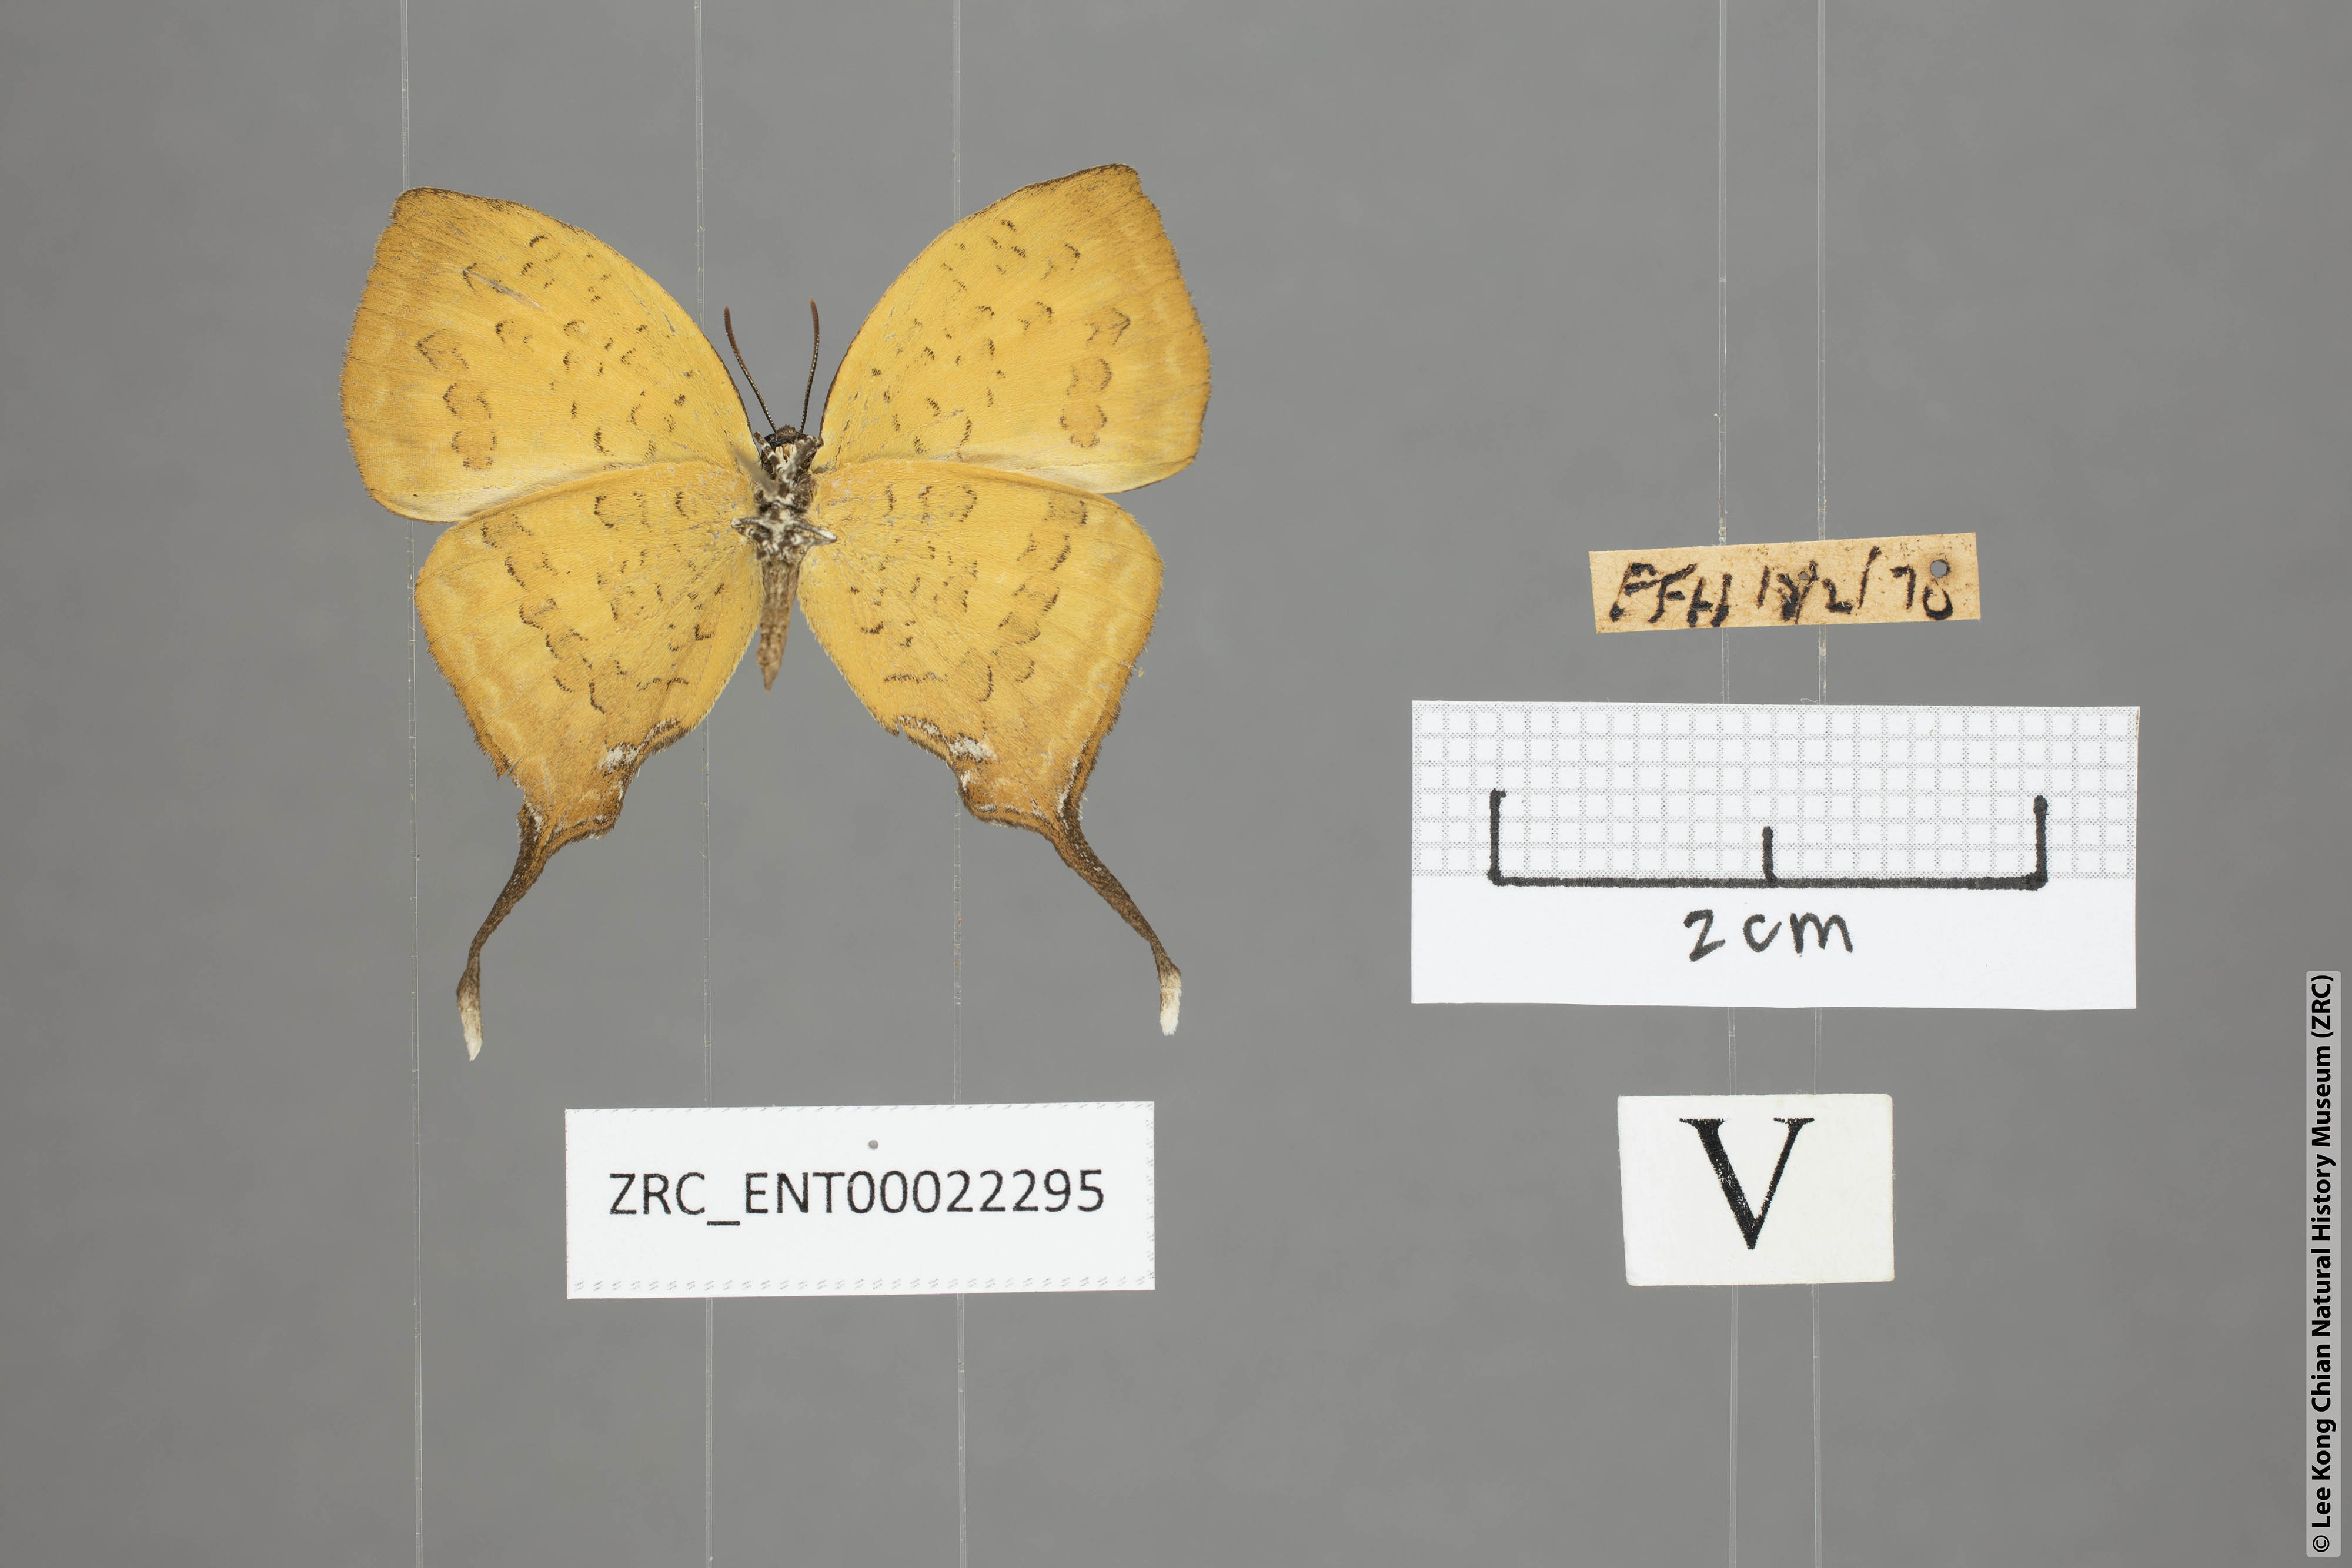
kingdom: Animalia
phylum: Arthropoda
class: Insecta
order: Lepidoptera
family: Lycaenidae
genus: Yasoda
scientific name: Yasoda pita
